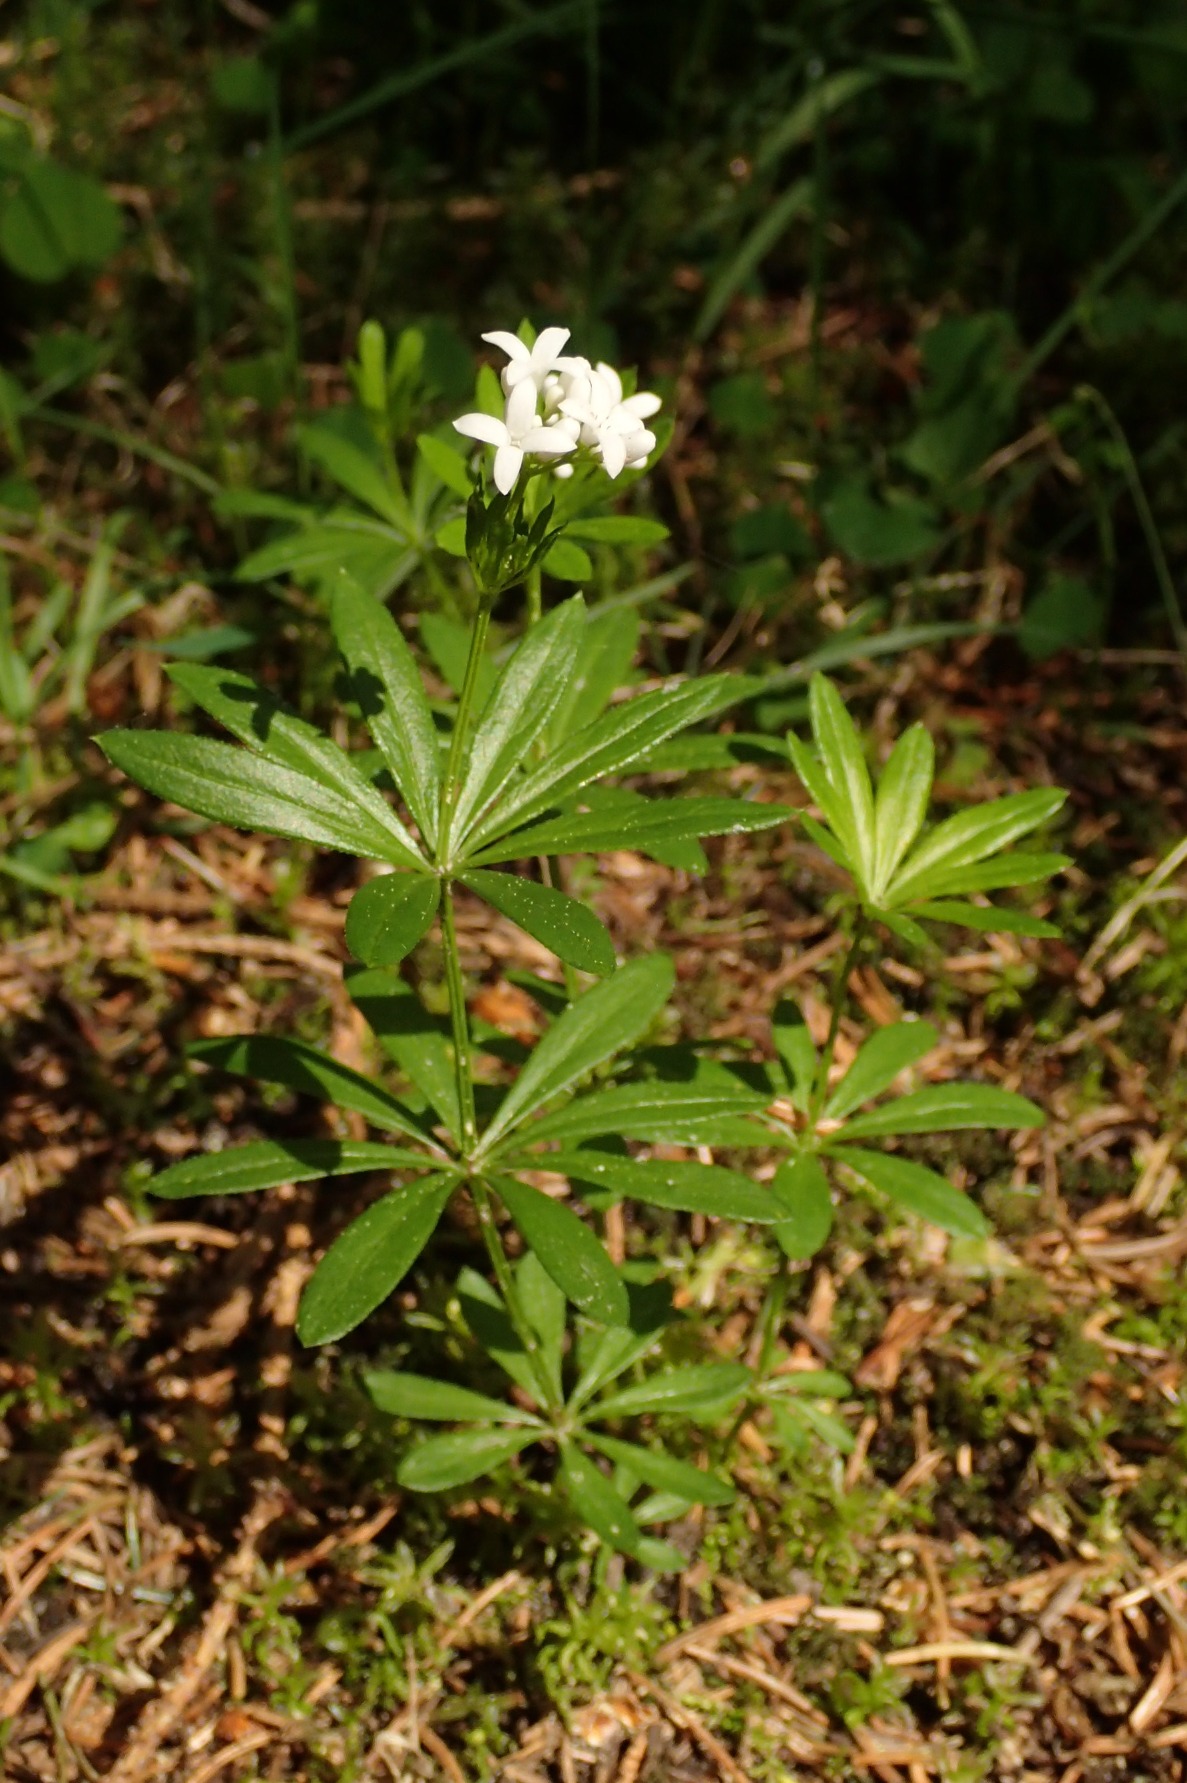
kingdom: Plantae
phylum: Tracheophyta
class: Magnoliopsida
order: Gentianales
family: Rubiaceae
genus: Galium
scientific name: Galium odoratum
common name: Skovmærke
